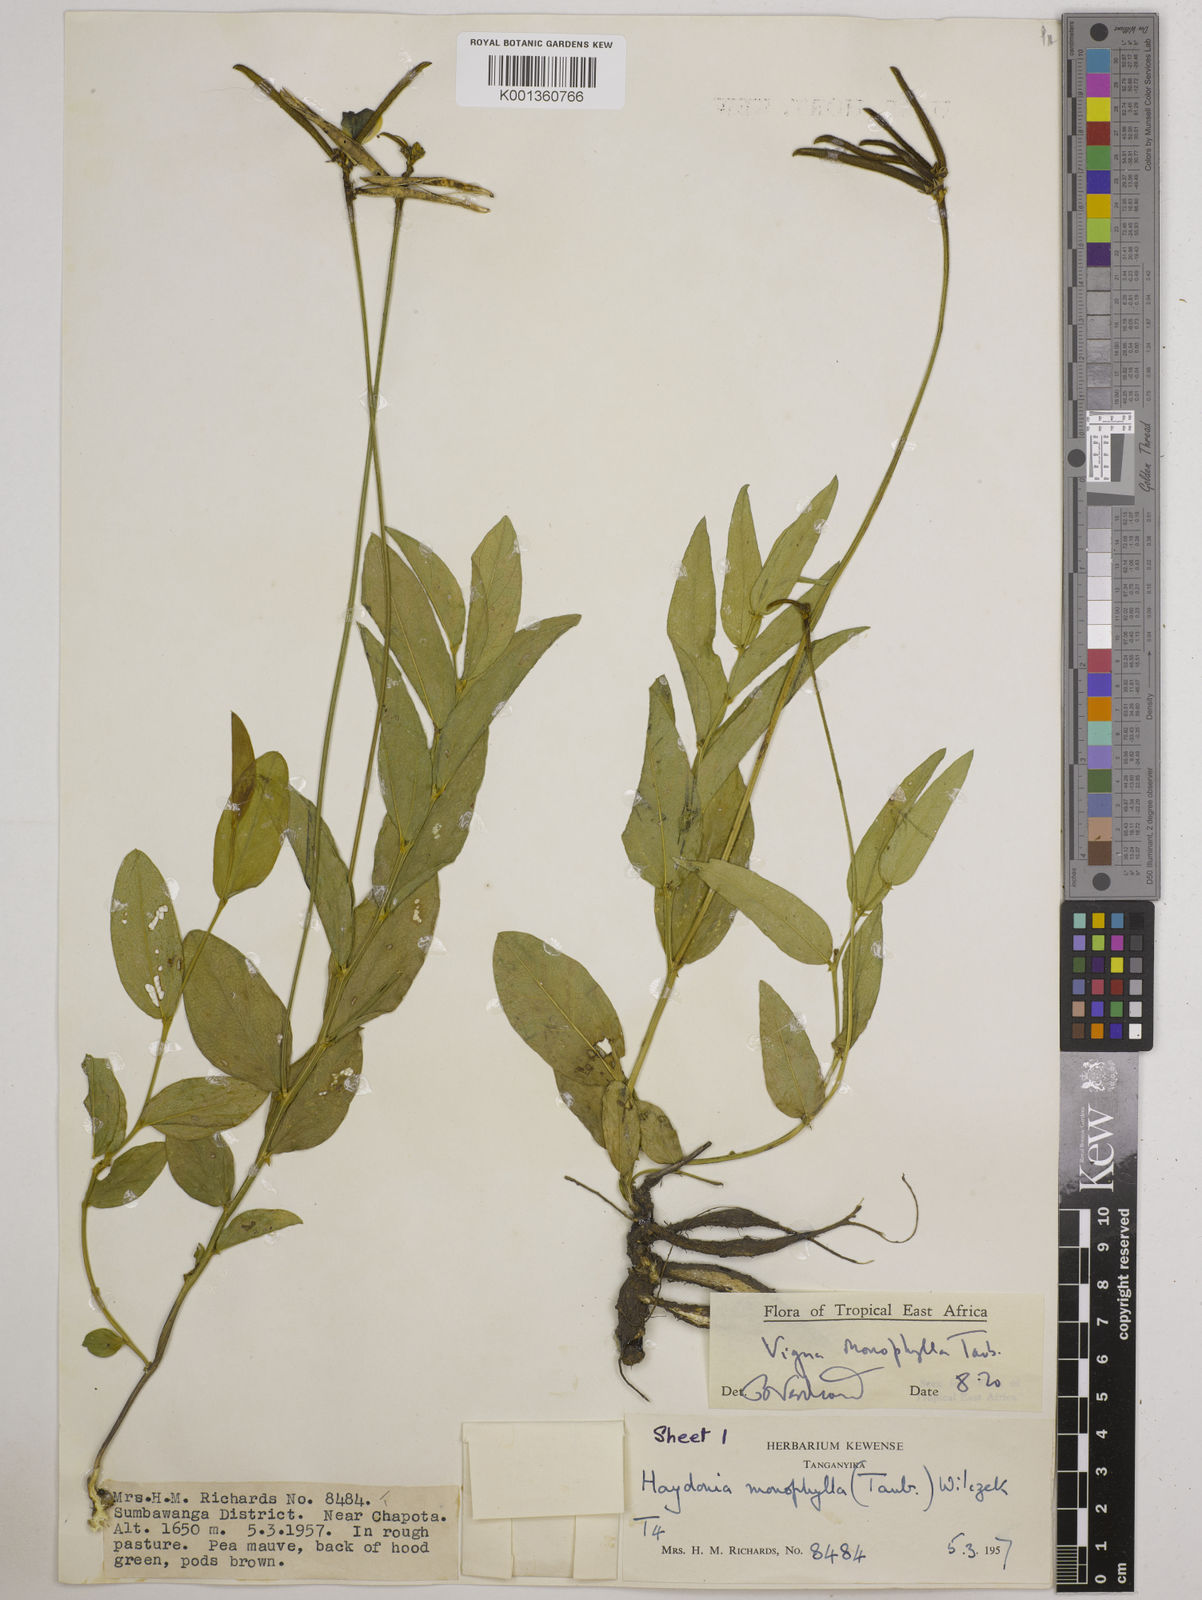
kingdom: Plantae
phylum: Tracheophyta
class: Magnoliopsida
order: Fabales
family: Fabaceae
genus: Vigna
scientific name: Vigna monophylla
